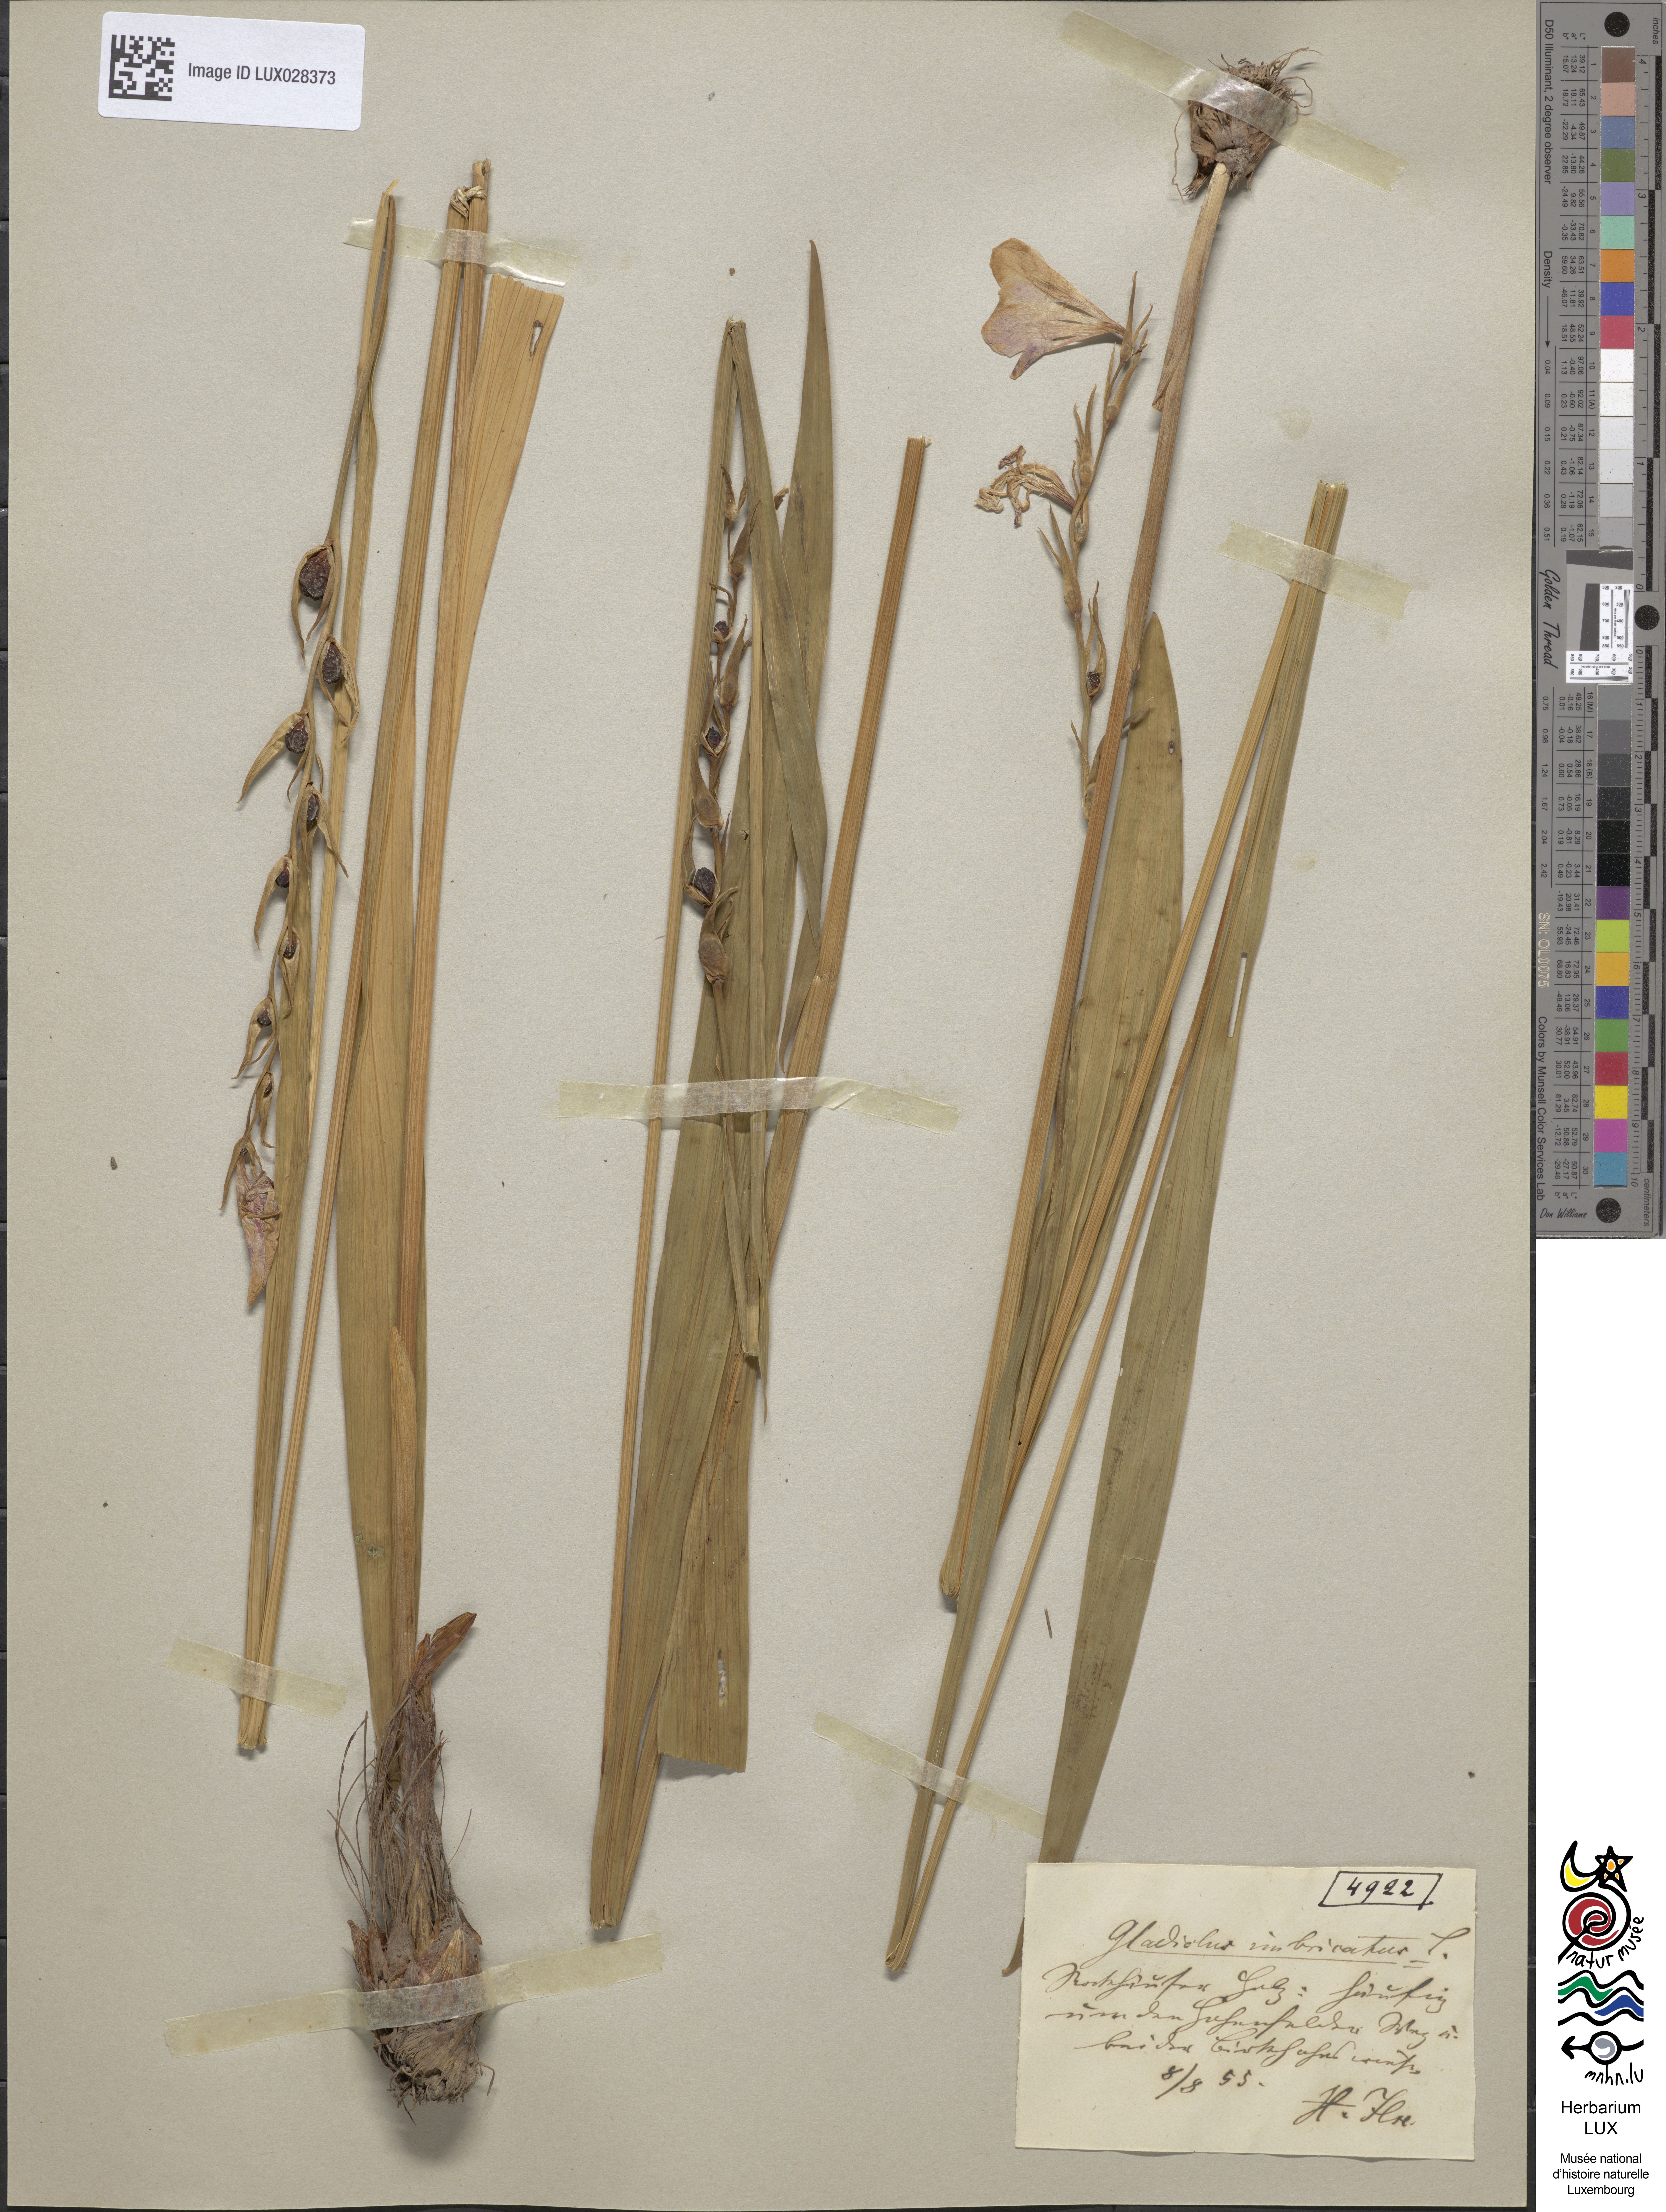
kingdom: Plantae
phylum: Tracheophyta
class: Liliopsida
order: Asparagales
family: Iridaceae
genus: Gladiolus
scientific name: Gladiolus imbricatus
